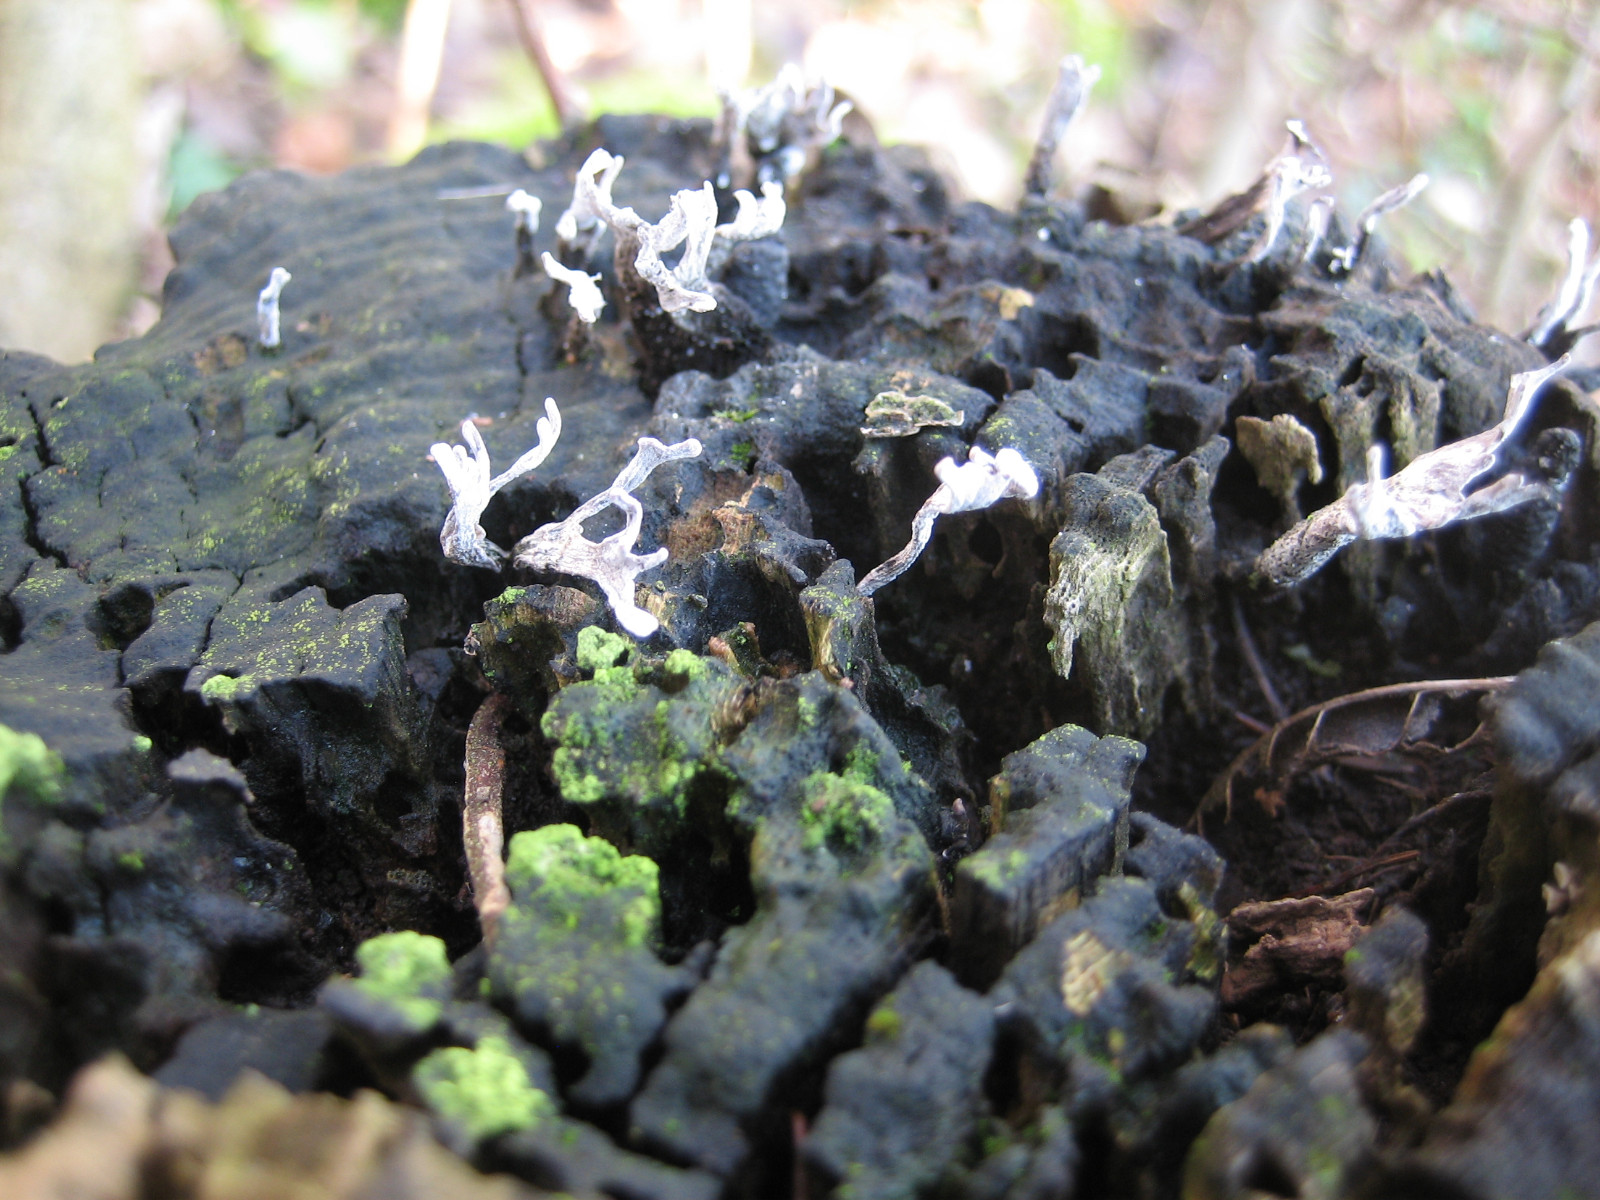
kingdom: Fungi
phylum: Ascomycota
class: Sordariomycetes
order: Xylariales
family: Xylariaceae
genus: Xylaria
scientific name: Xylaria hypoxylon
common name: grenet stødsvamp
